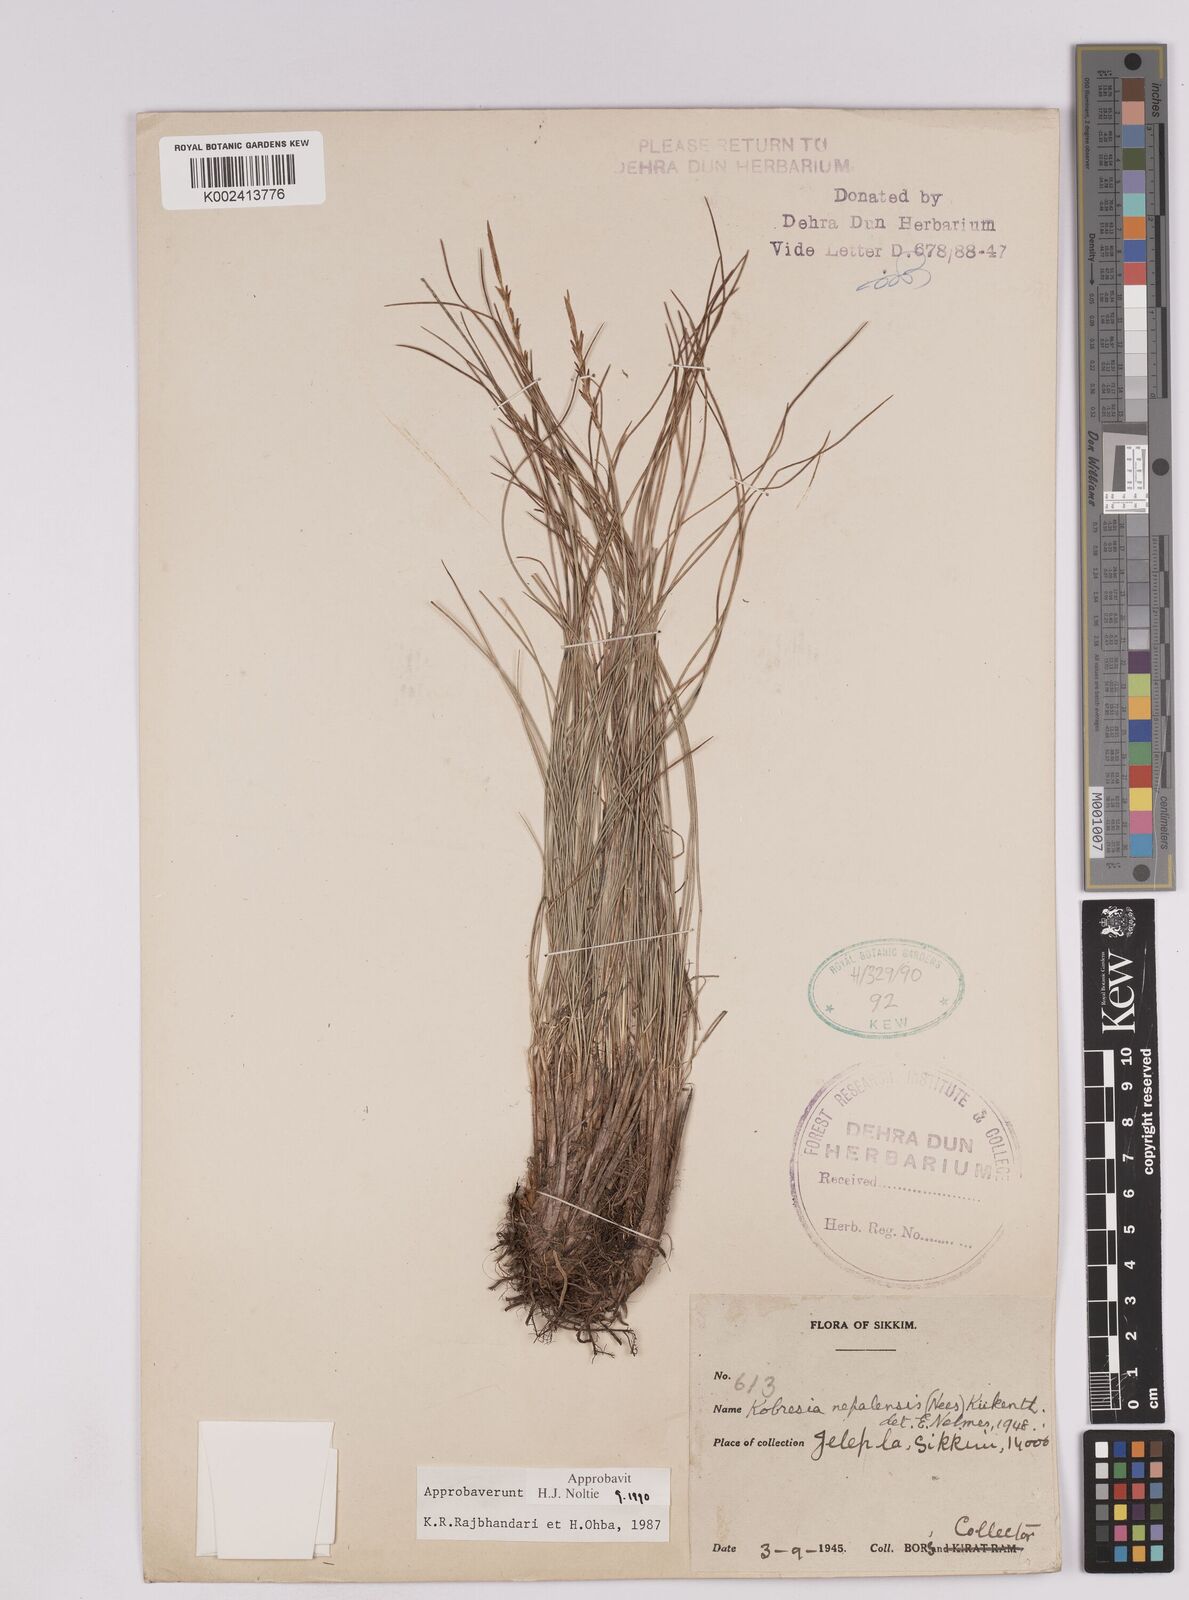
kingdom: Plantae
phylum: Tracheophyta
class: Liliopsida
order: Poales
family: Cyperaceae
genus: Carex
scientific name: Carex unciniiformis
